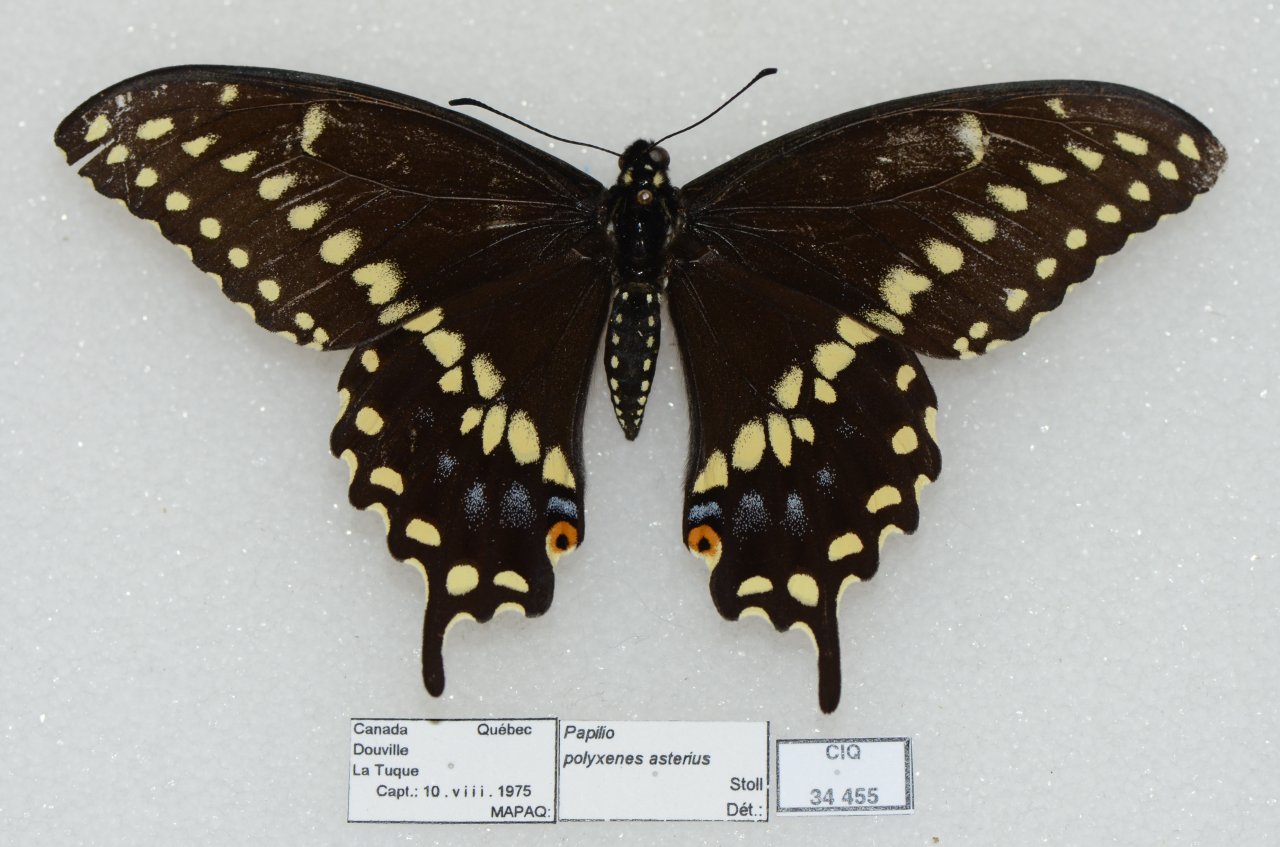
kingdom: Animalia
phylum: Arthropoda
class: Insecta
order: Lepidoptera
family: Papilionidae
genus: Papilio
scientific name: Papilio polyxenes
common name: Black Swallowtail
